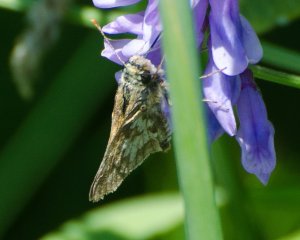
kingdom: Animalia
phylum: Arthropoda
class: Insecta
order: Lepidoptera
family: Hesperiidae
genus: Polites
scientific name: Polites coras
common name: Peck's Skipper
